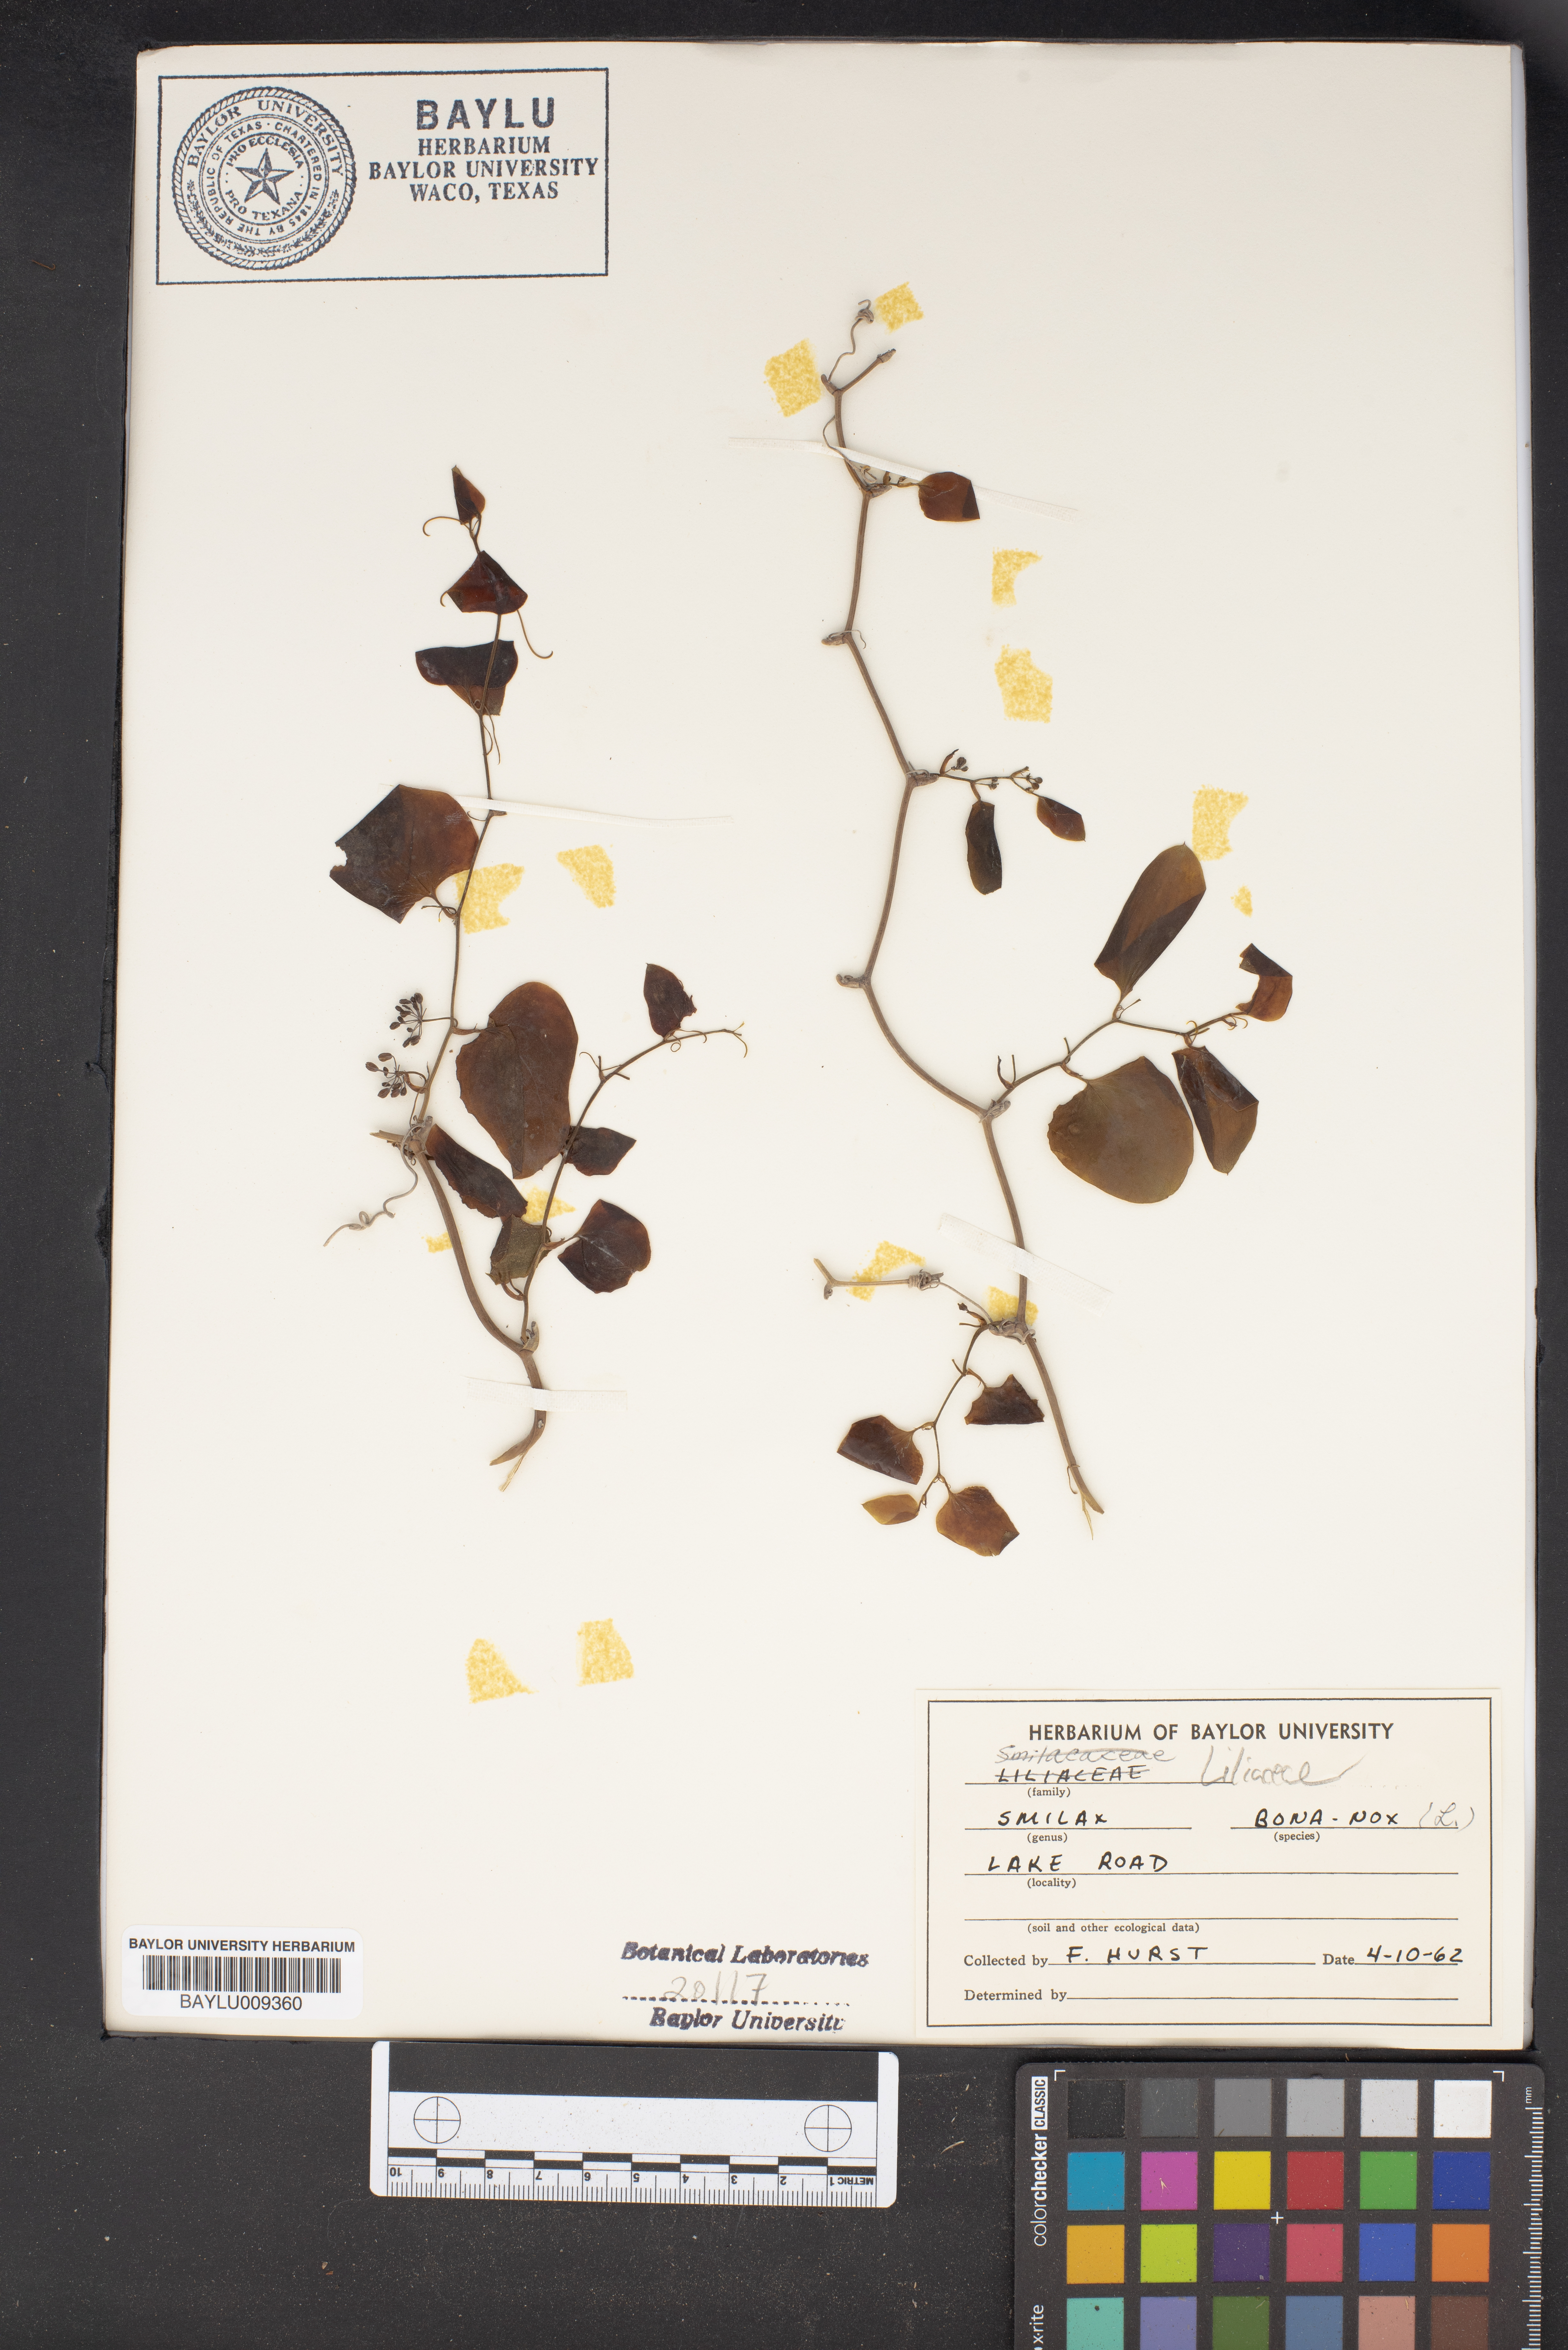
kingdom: Plantae
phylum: Tracheophyta
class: Liliopsida
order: Liliales
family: Smilacaceae
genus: Smilax
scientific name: Smilax bona-nox
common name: Catbrier
